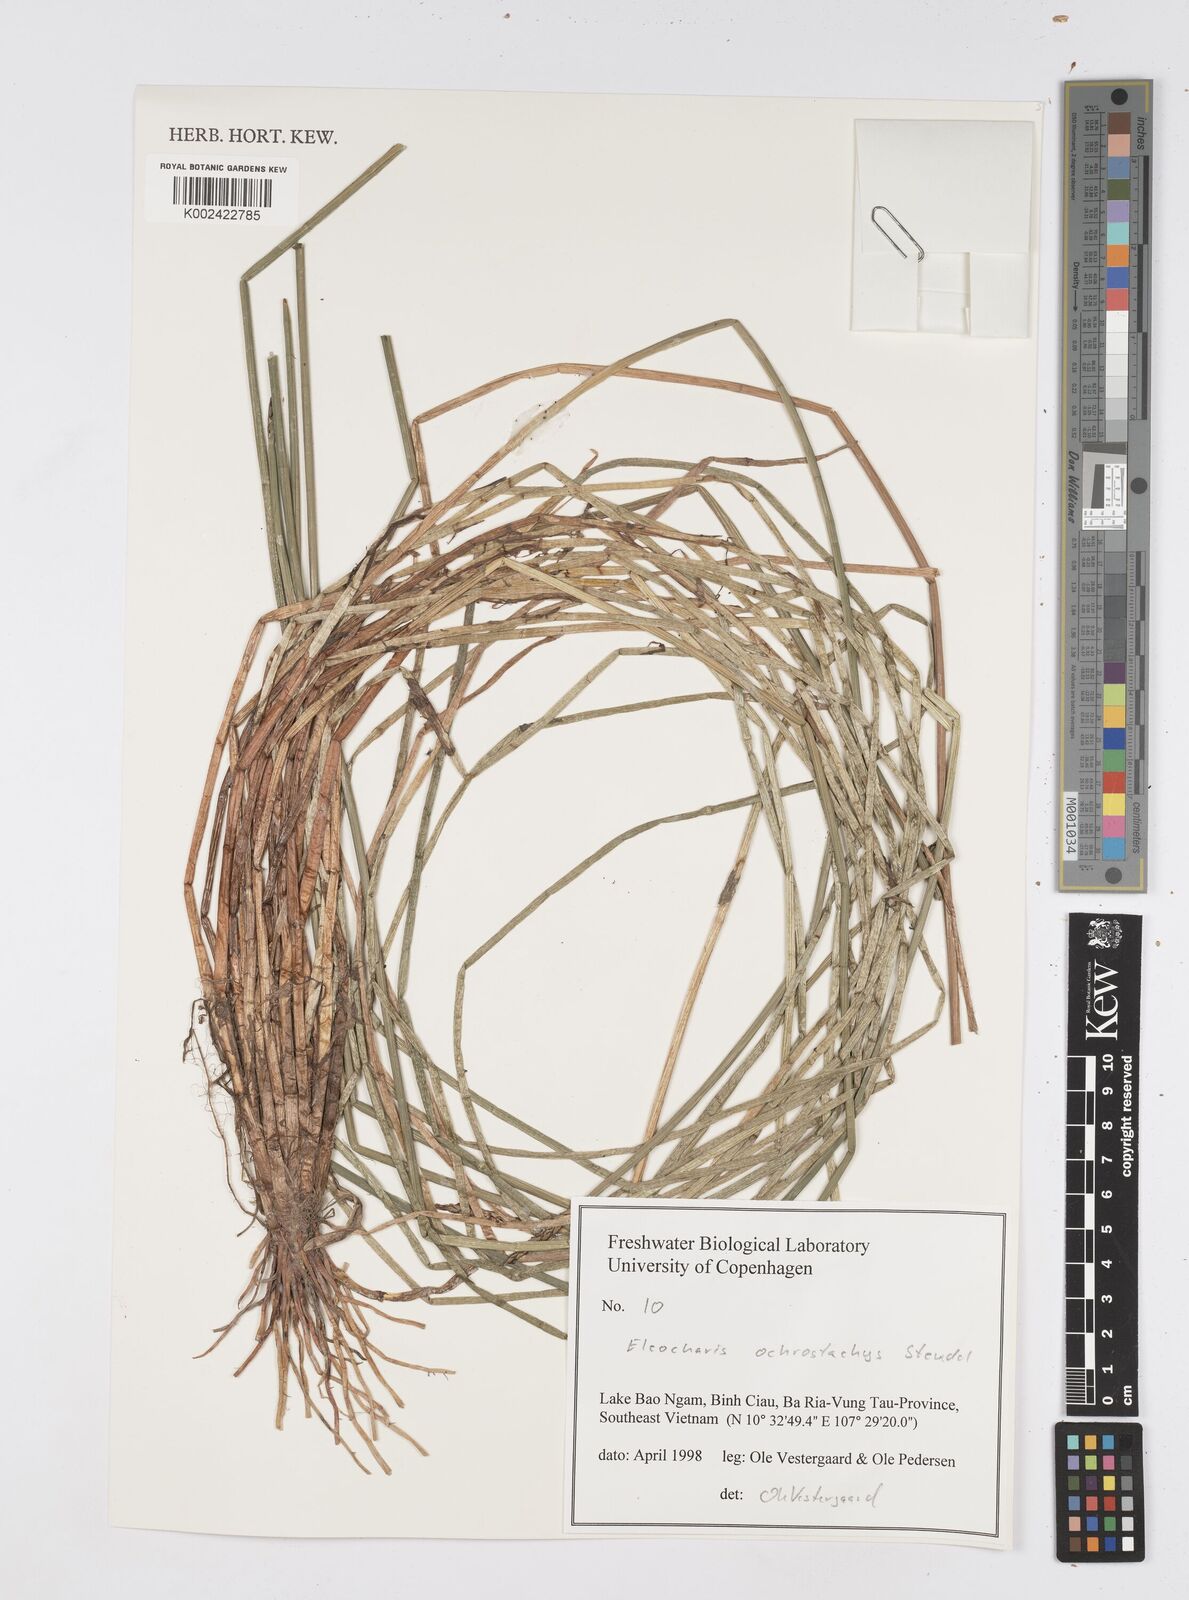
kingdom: Plantae
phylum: Tracheophyta
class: Liliopsida
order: Poales
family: Cyperaceae
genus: Eleocharis
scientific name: Eleocharis ochrostachys
